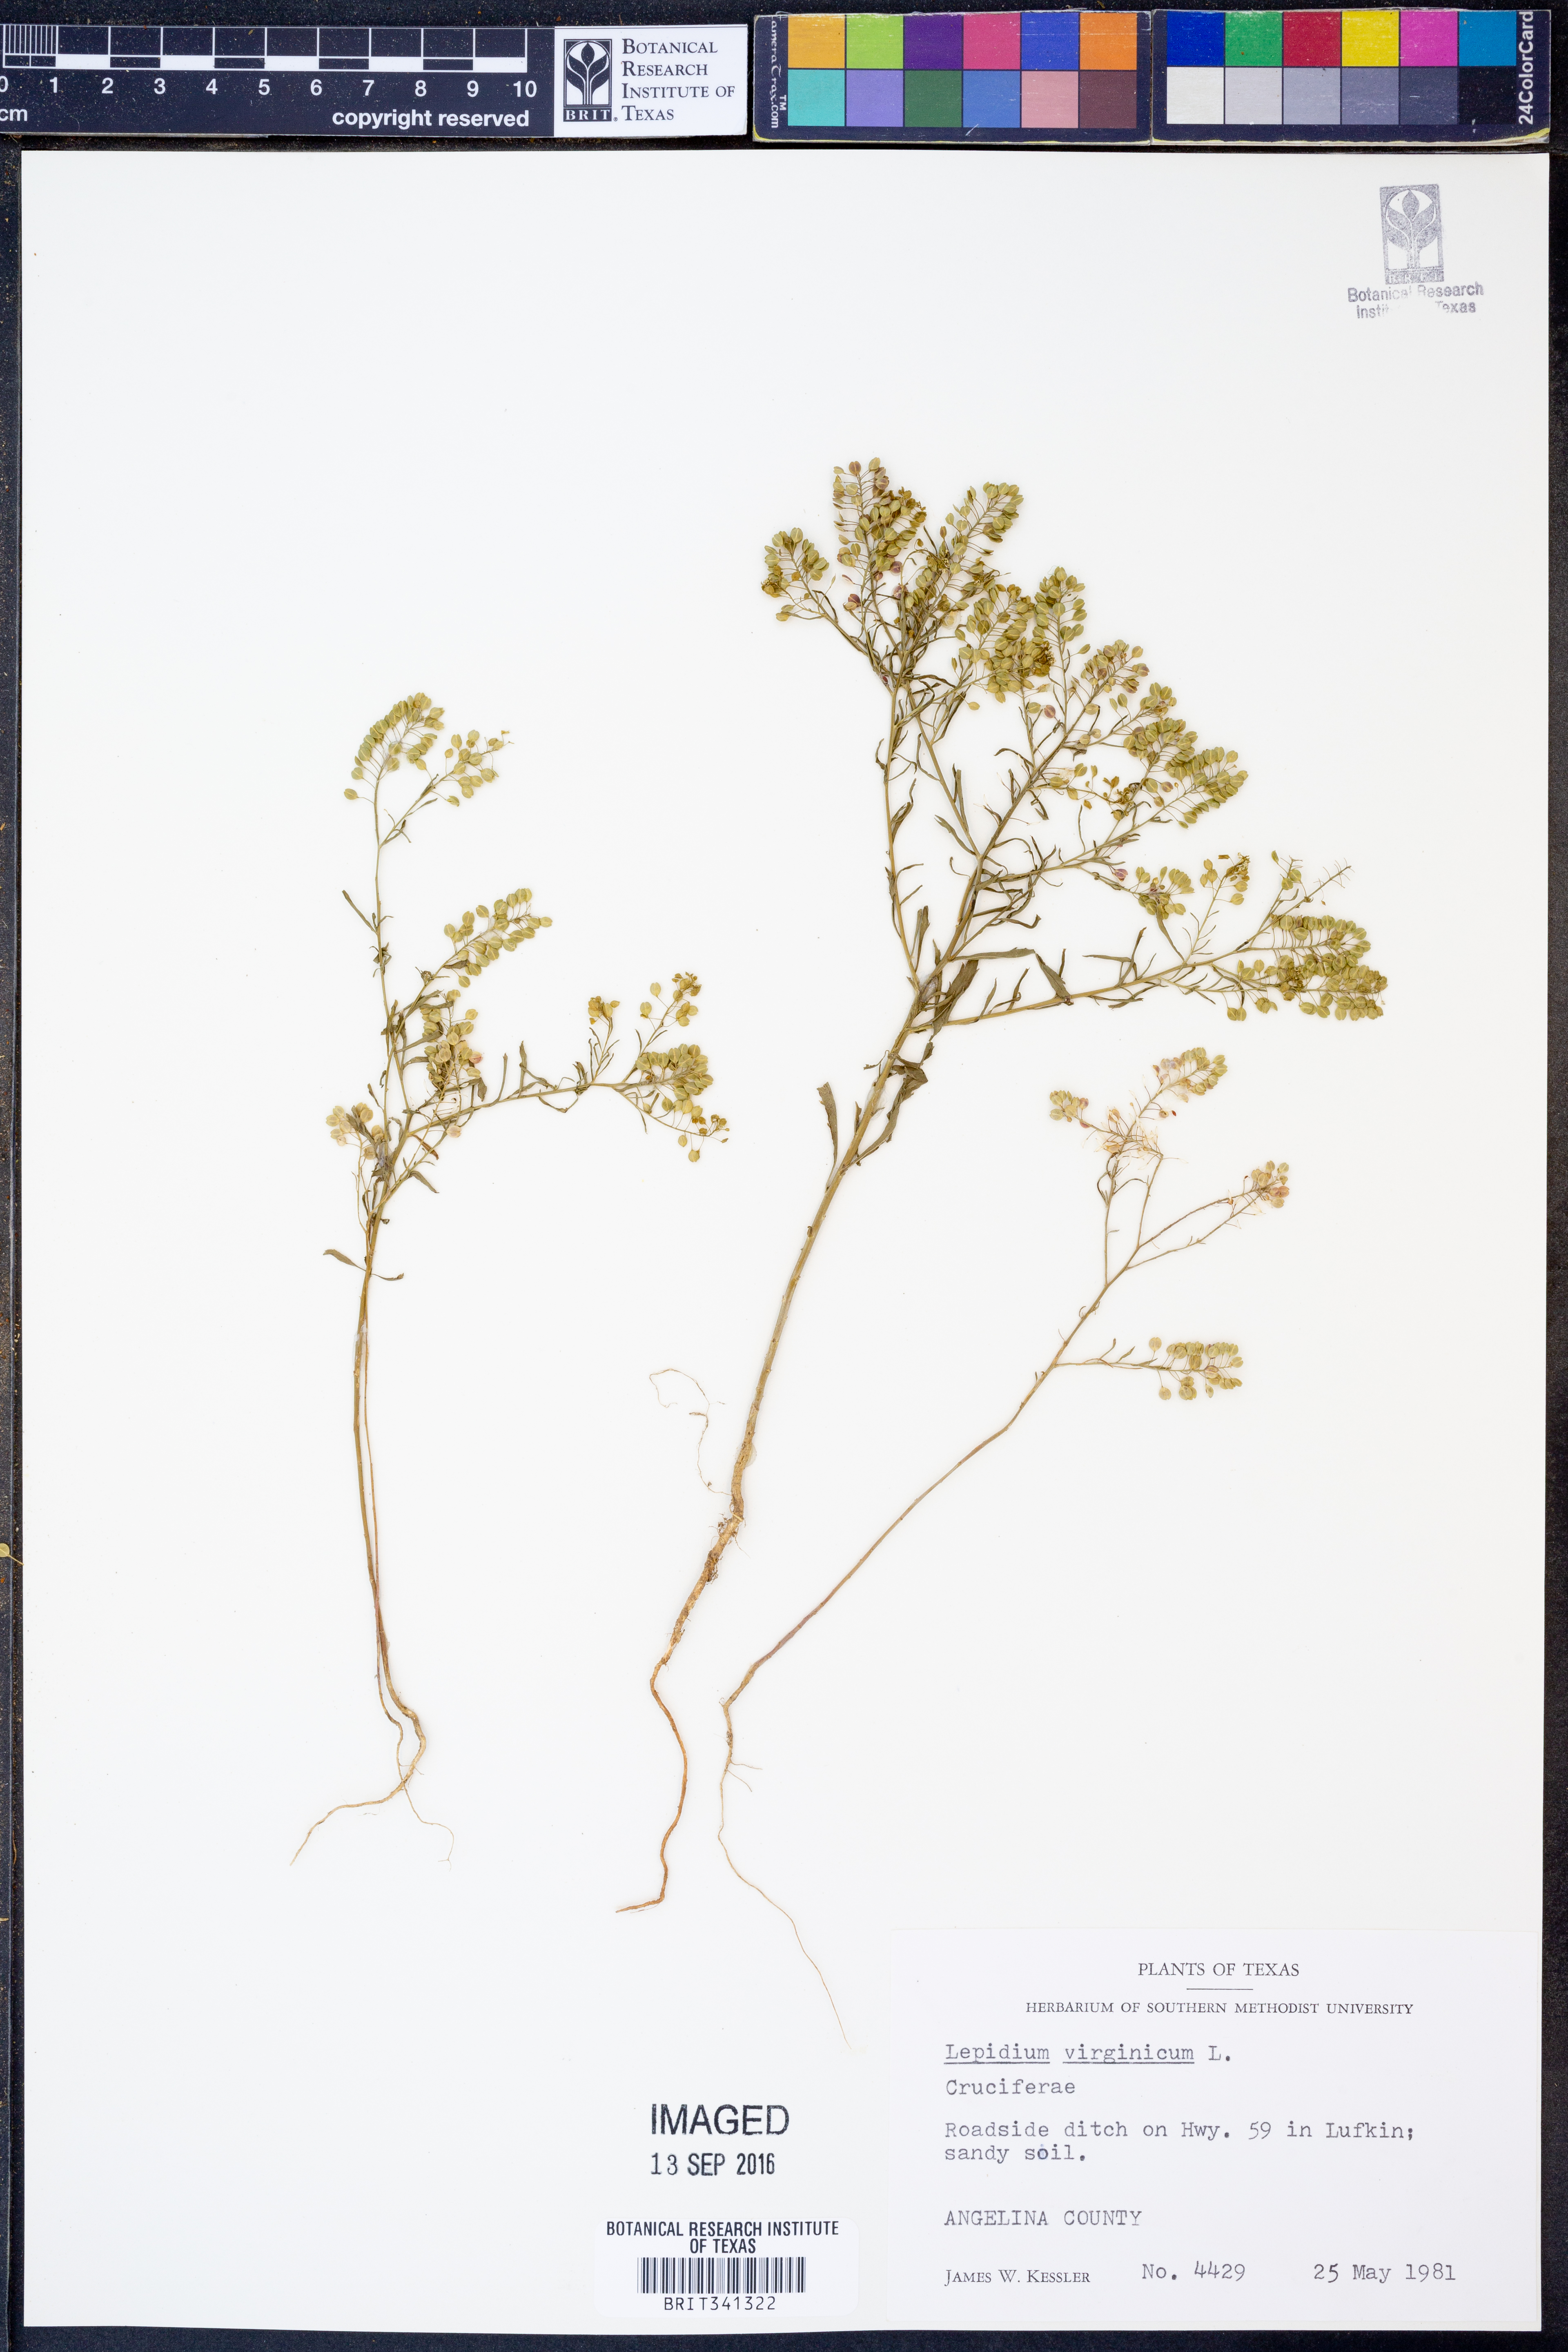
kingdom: Plantae
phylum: Tracheophyta
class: Magnoliopsida
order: Brassicales
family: Brassicaceae
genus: Lepidium
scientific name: Lepidium virginicum
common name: Least pepperwort
